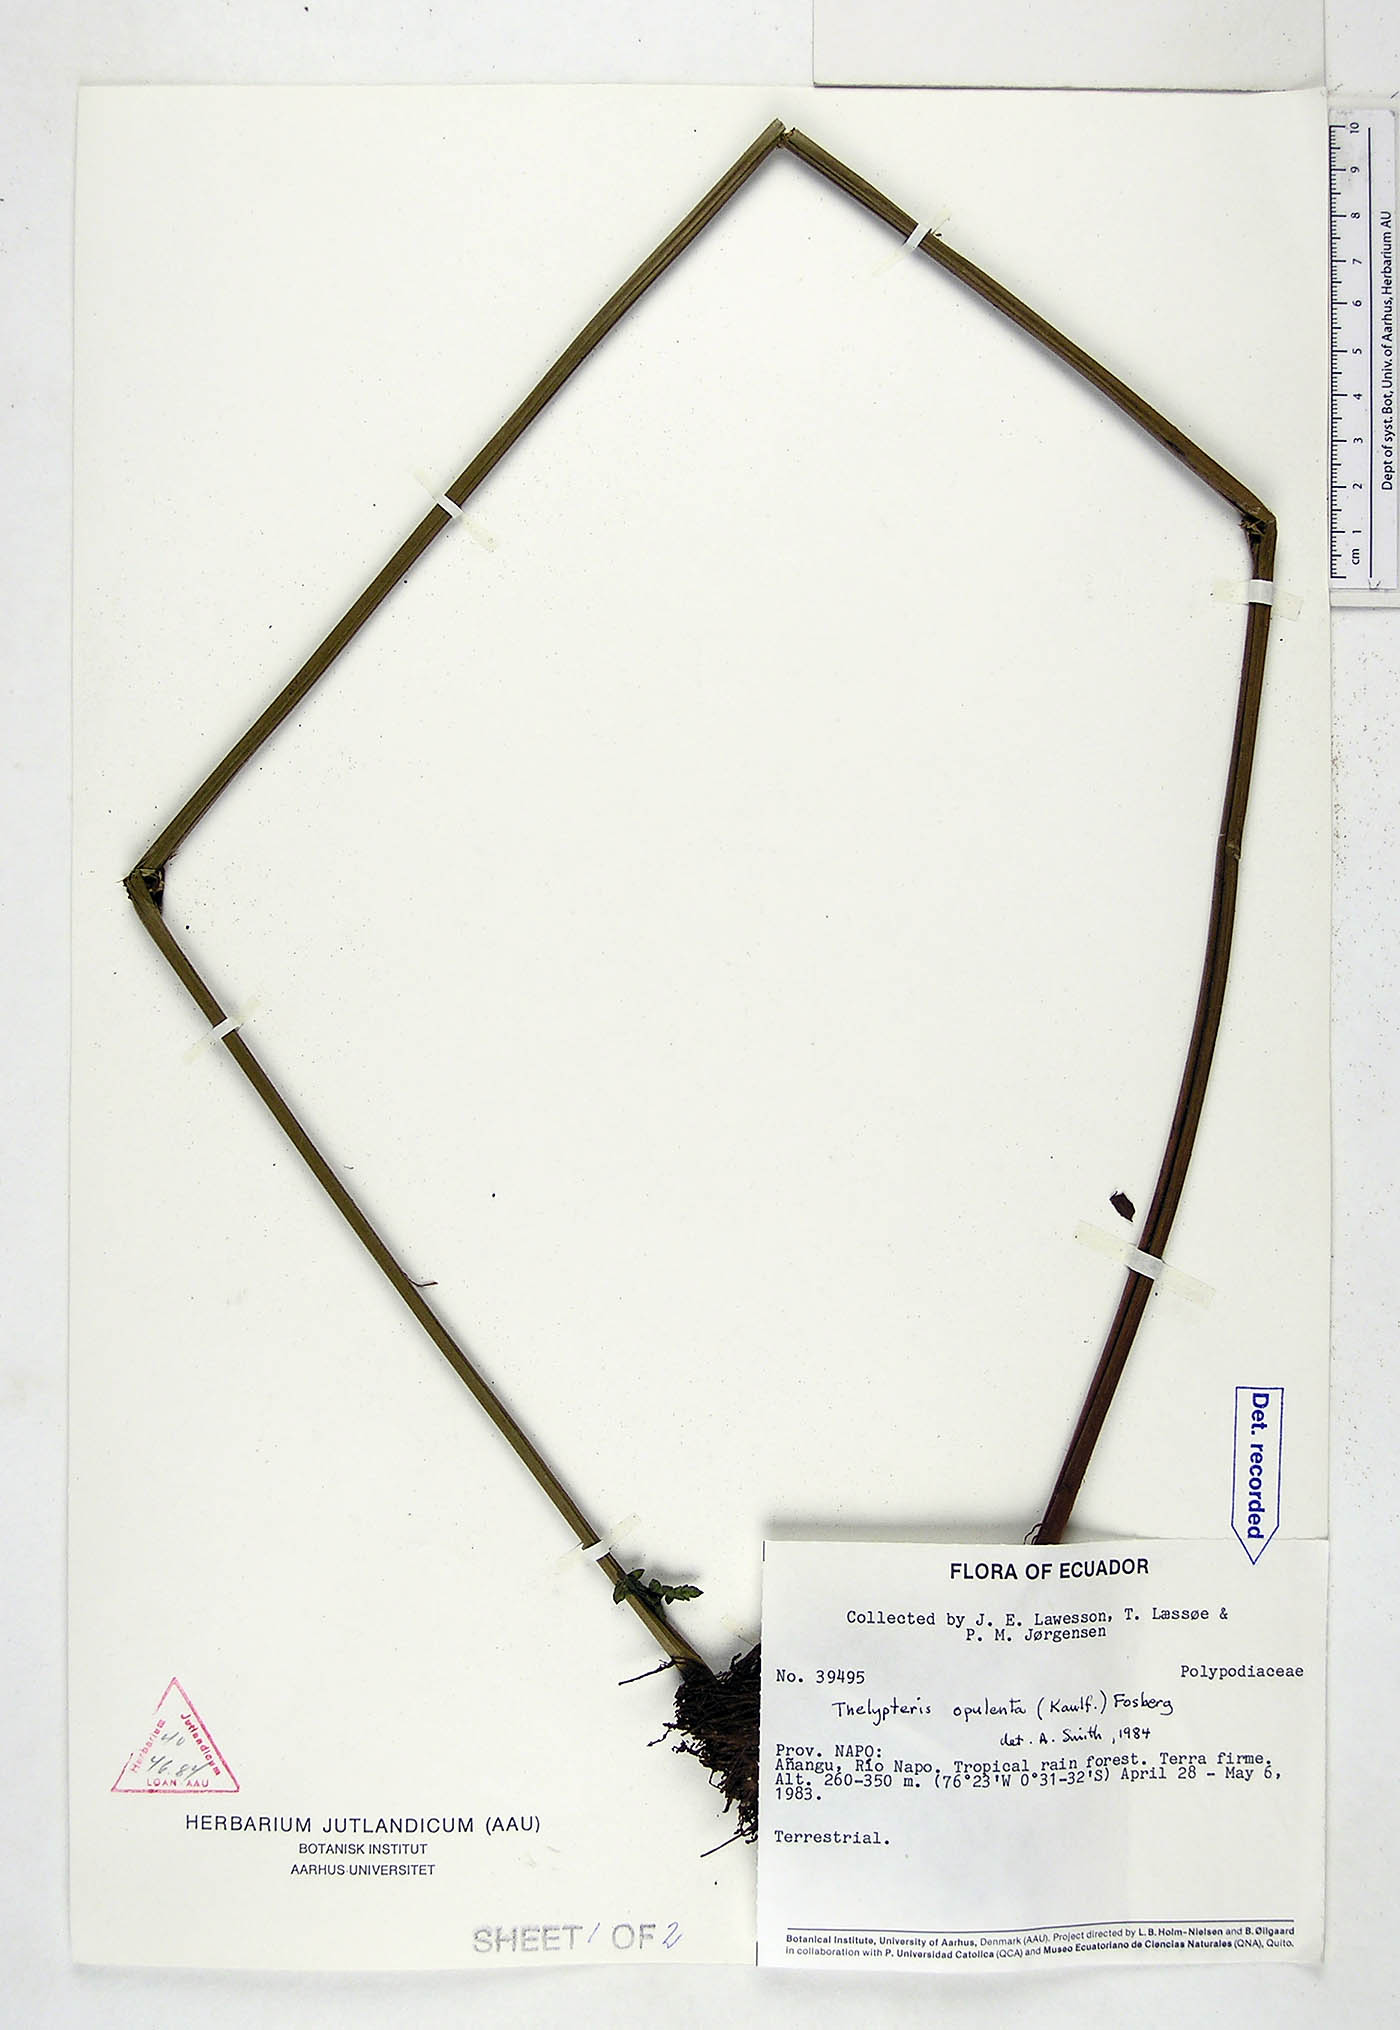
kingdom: Plantae
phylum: Tracheophyta
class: Polypodiopsida
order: Polypodiales
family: Thelypteridaceae
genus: Amblovenatum
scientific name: Amblovenatum opulentum
